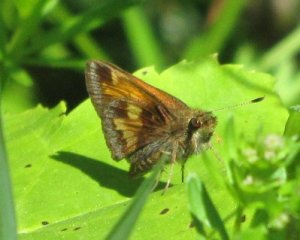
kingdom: Animalia
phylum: Arthropoda
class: Insecta
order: Lepidoptera
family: Hesperiidae
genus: Lon
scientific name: Lon hobomok
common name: Hobomok Skipper
